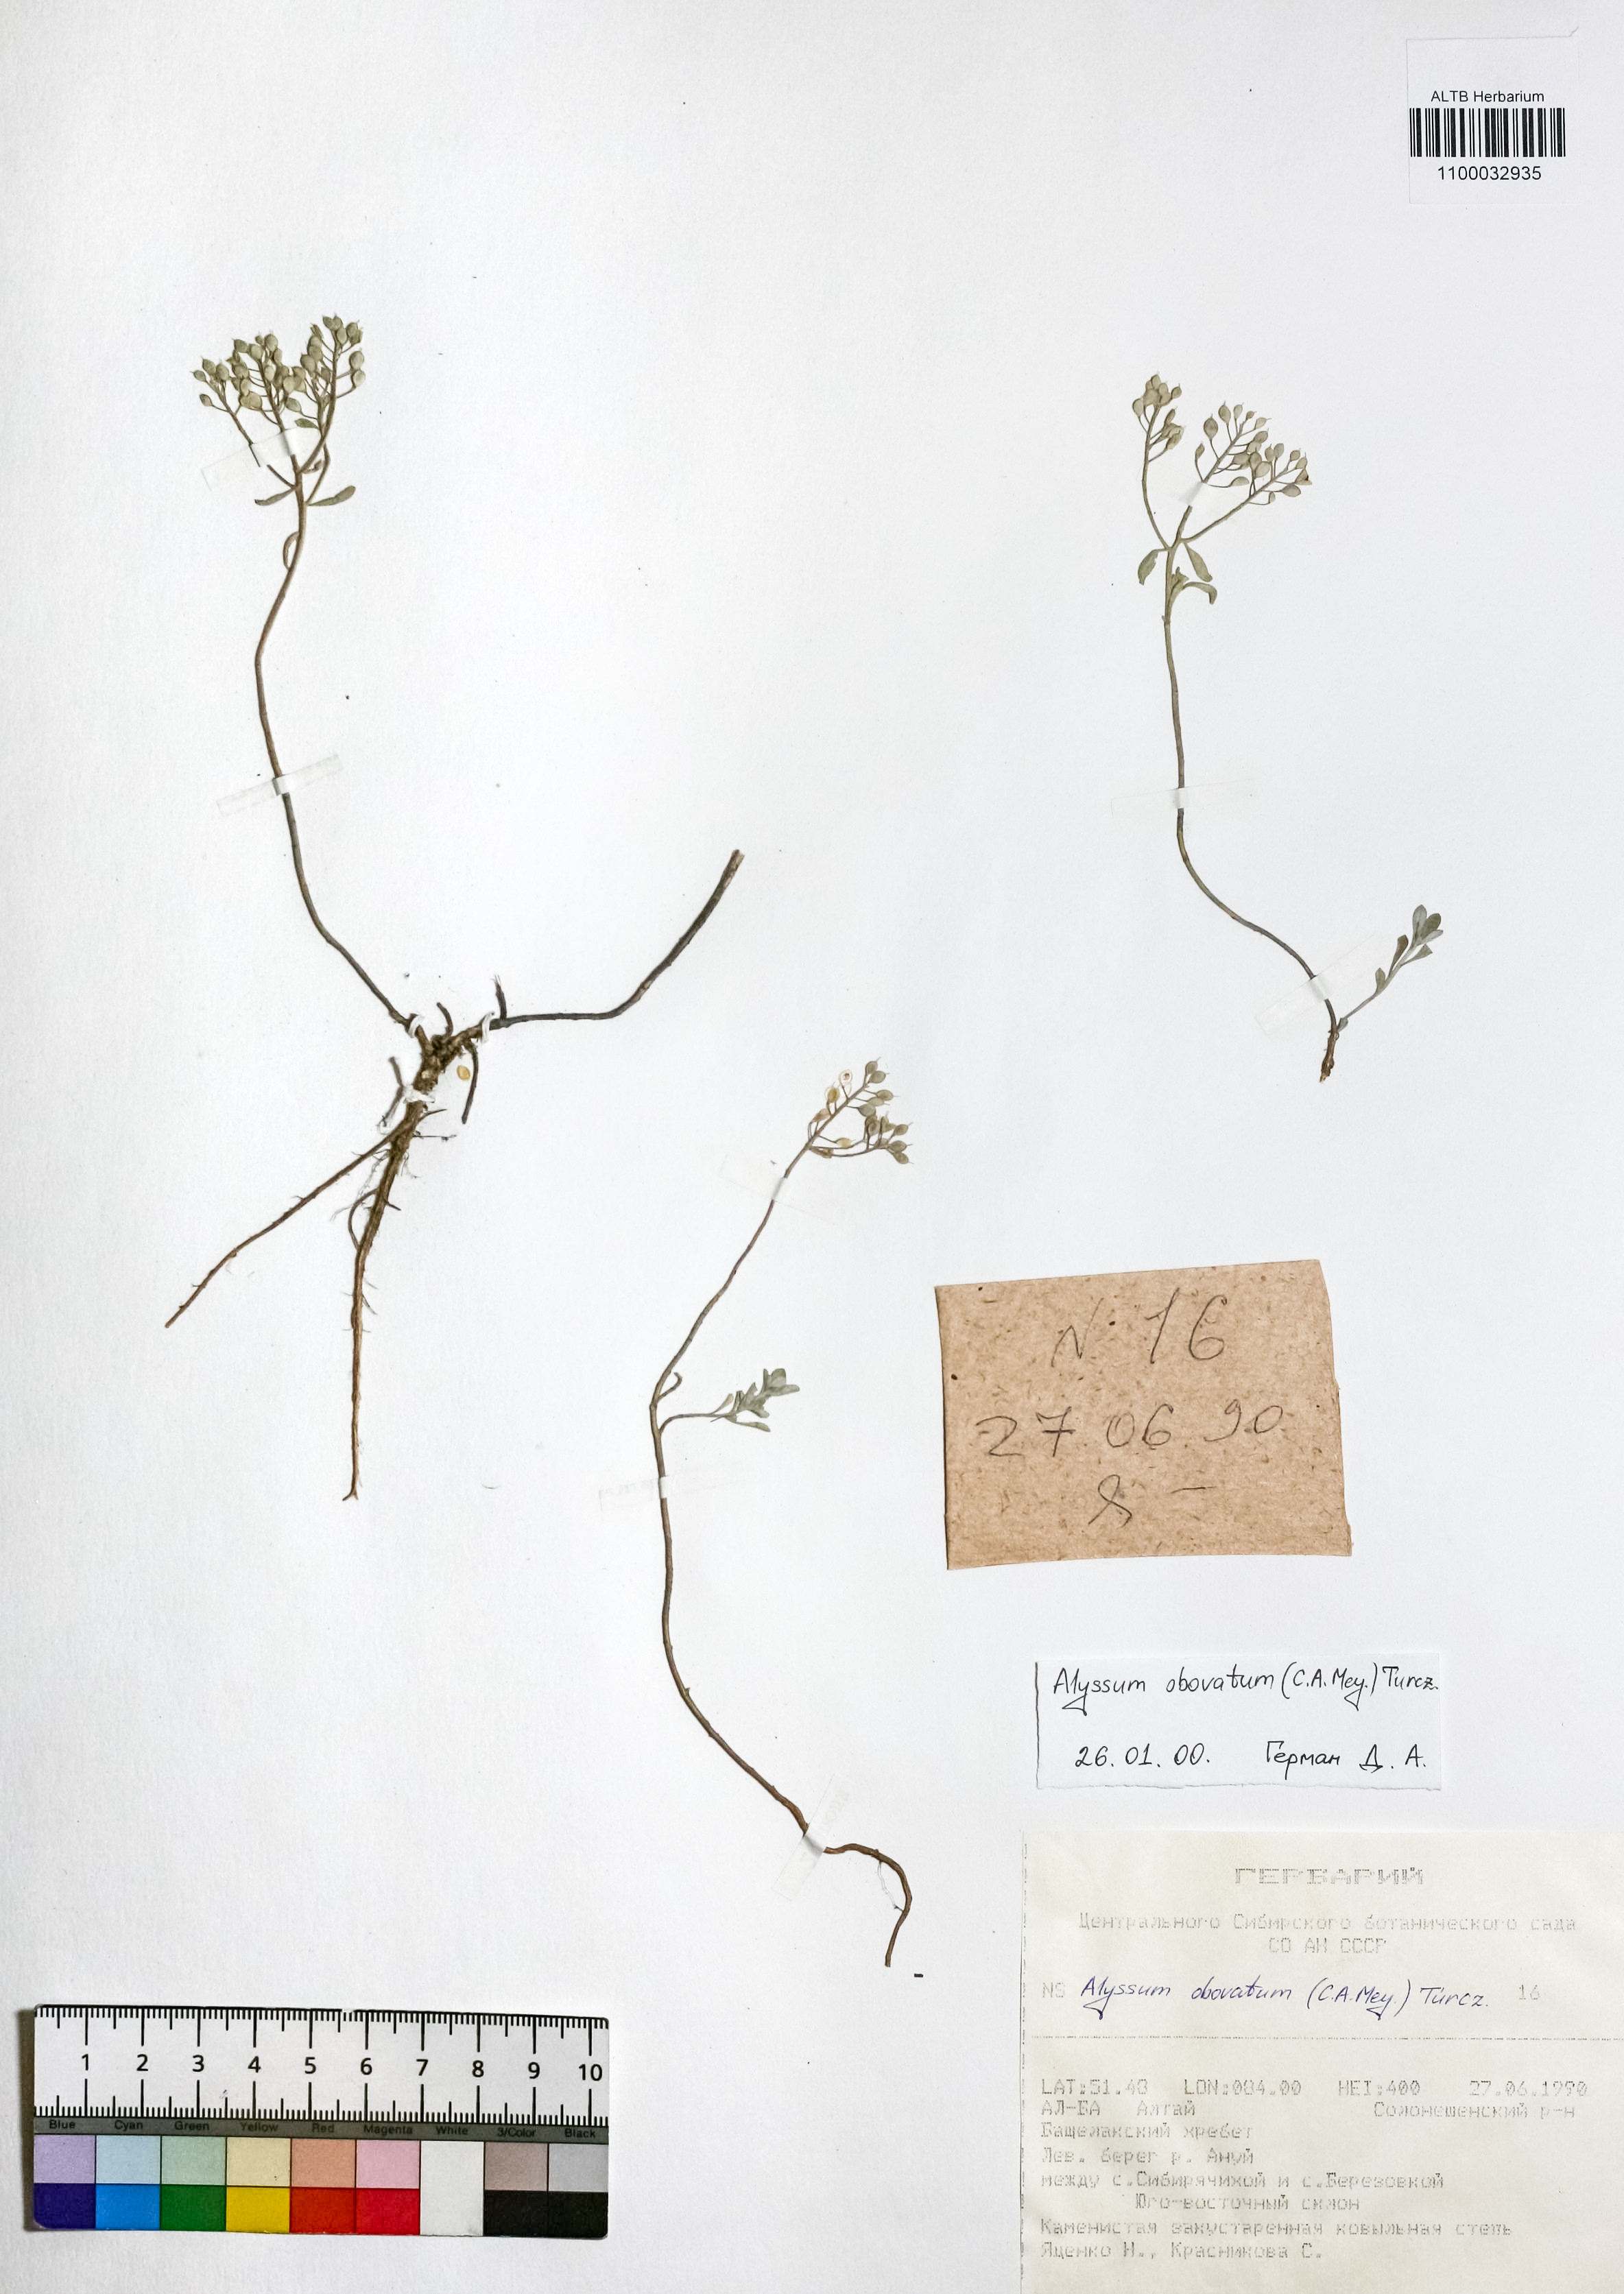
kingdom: Plantae
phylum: Tracheophyta
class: Magnoliopsida
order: Brassicales
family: Brassicaceae
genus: Odontarrhena
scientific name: Odontarrhena obovata
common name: American alyssum
